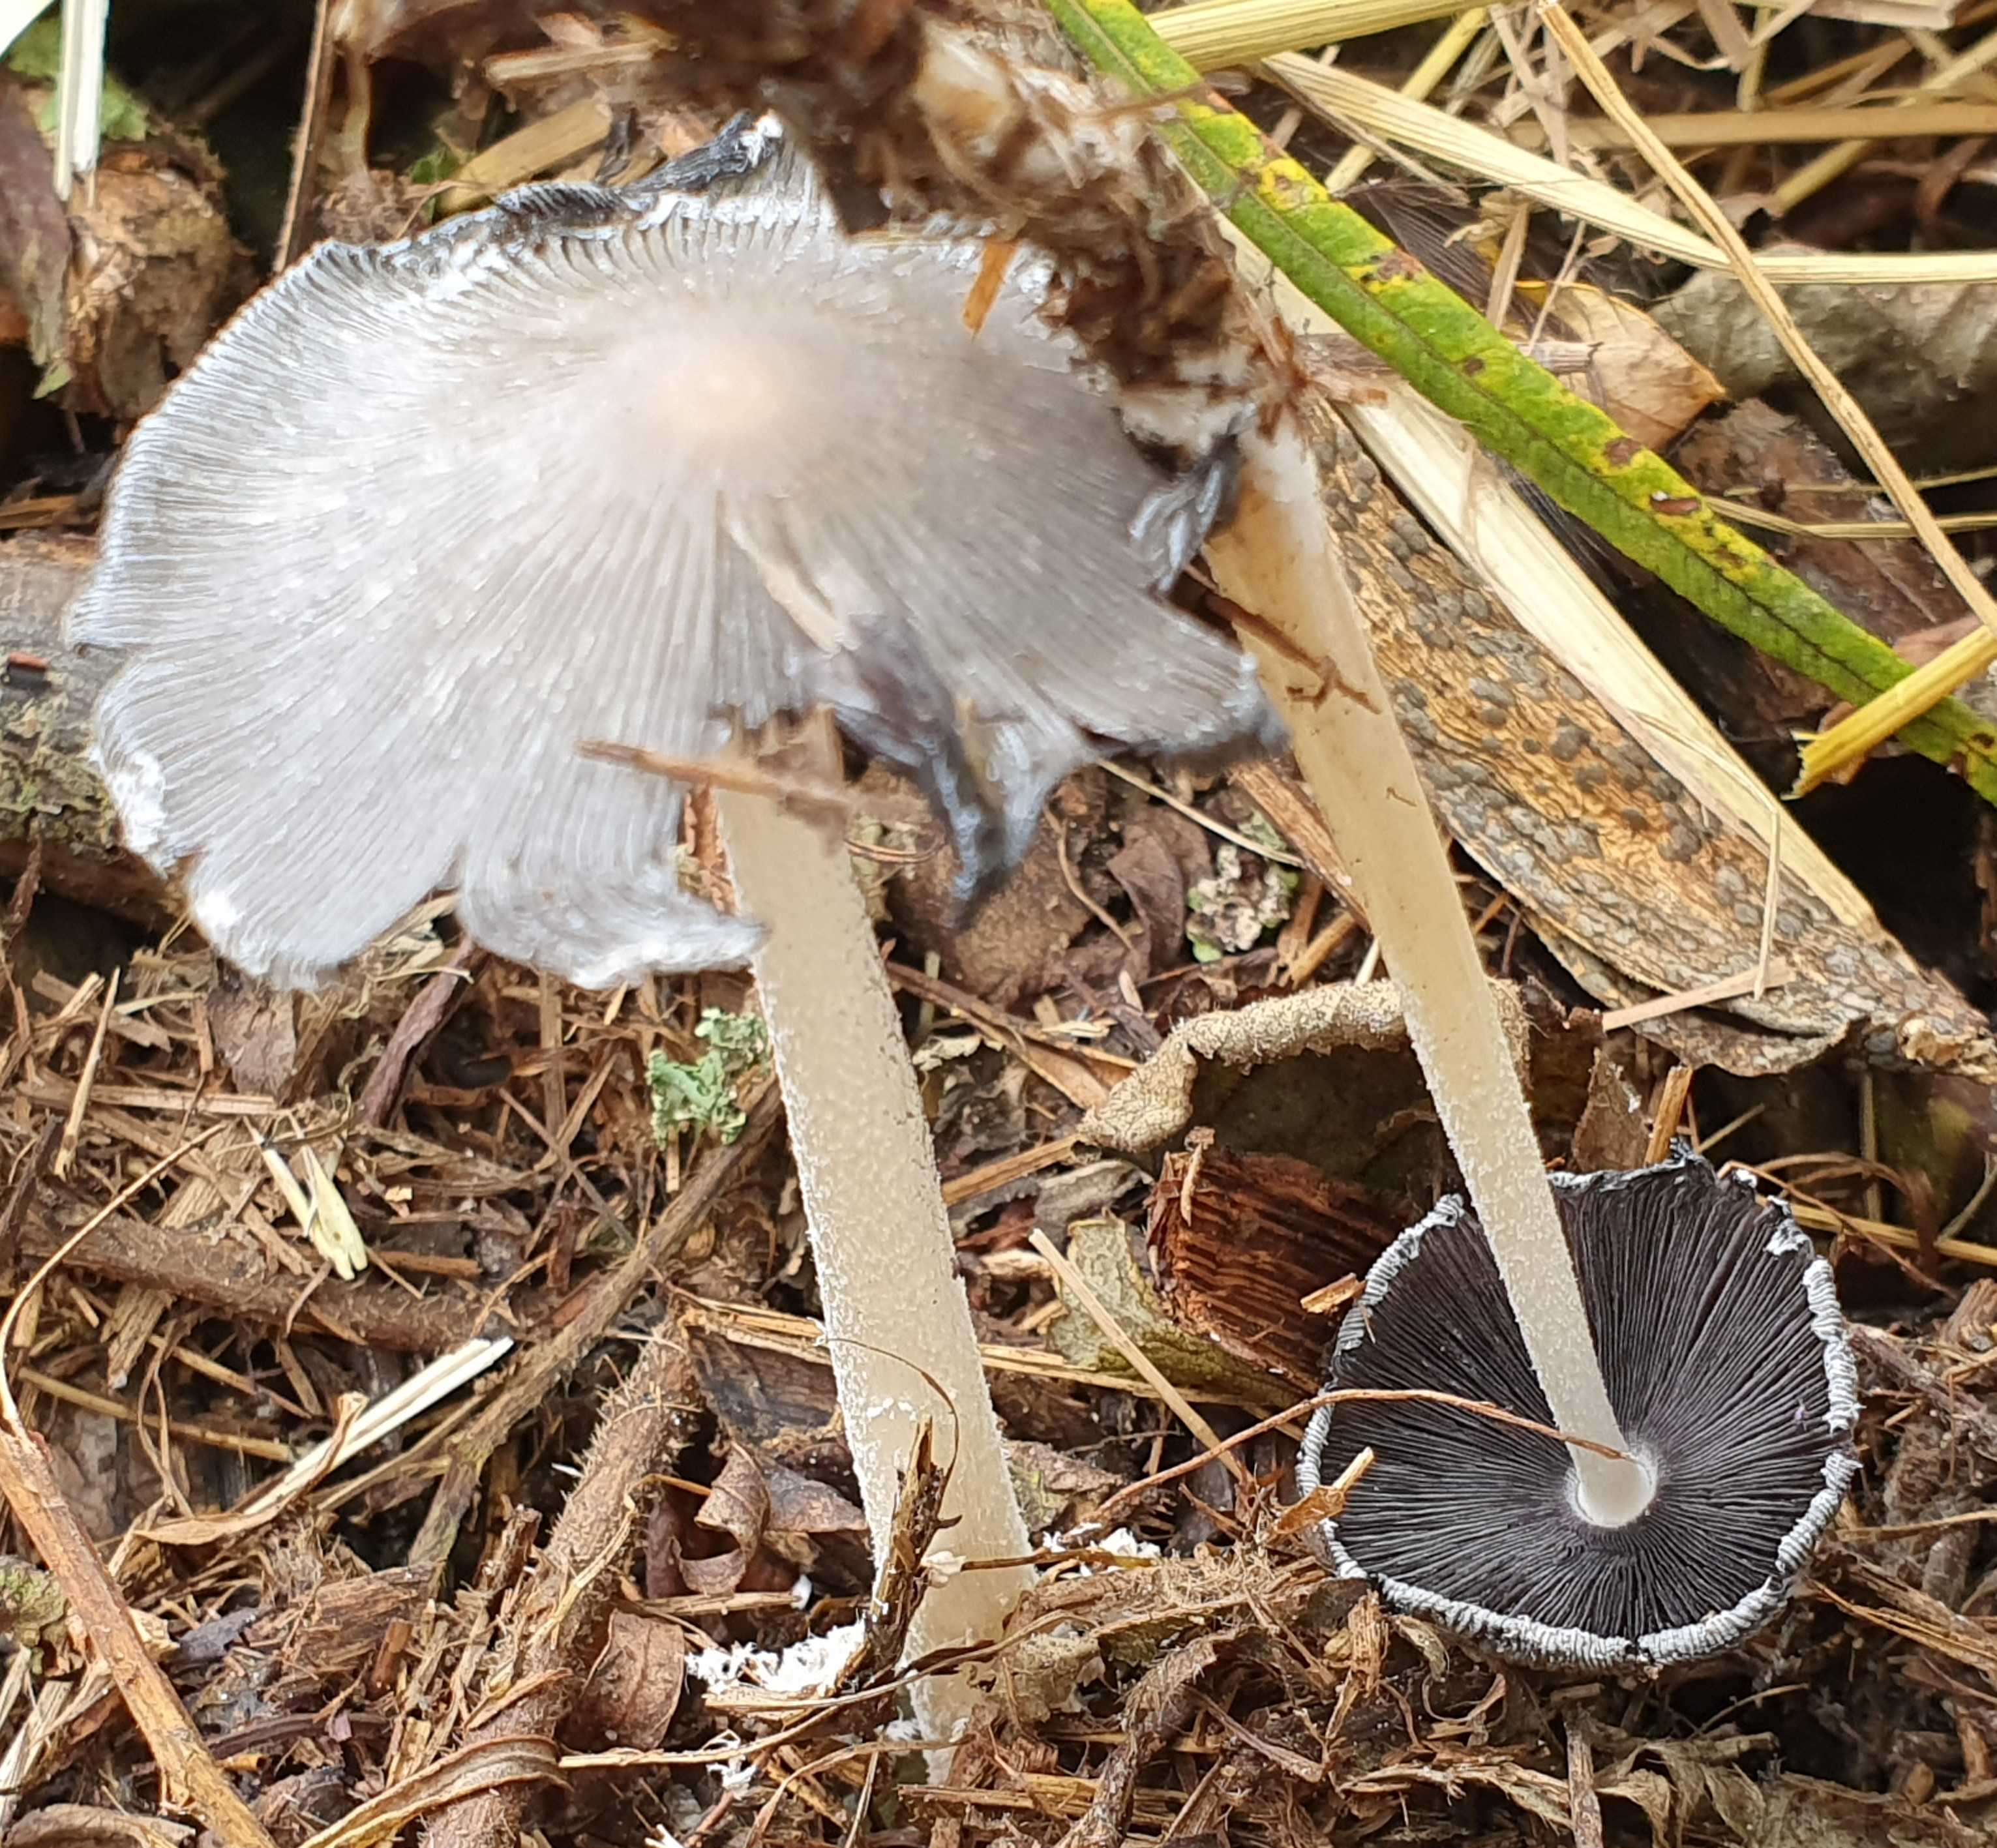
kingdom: Fungi
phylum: Basidiomycota
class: Agaricomycetes
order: Agaricales
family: Psathyrellaceae
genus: Coprinopsis
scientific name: Coprinopsis lagopus
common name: dunstokket blækhat
